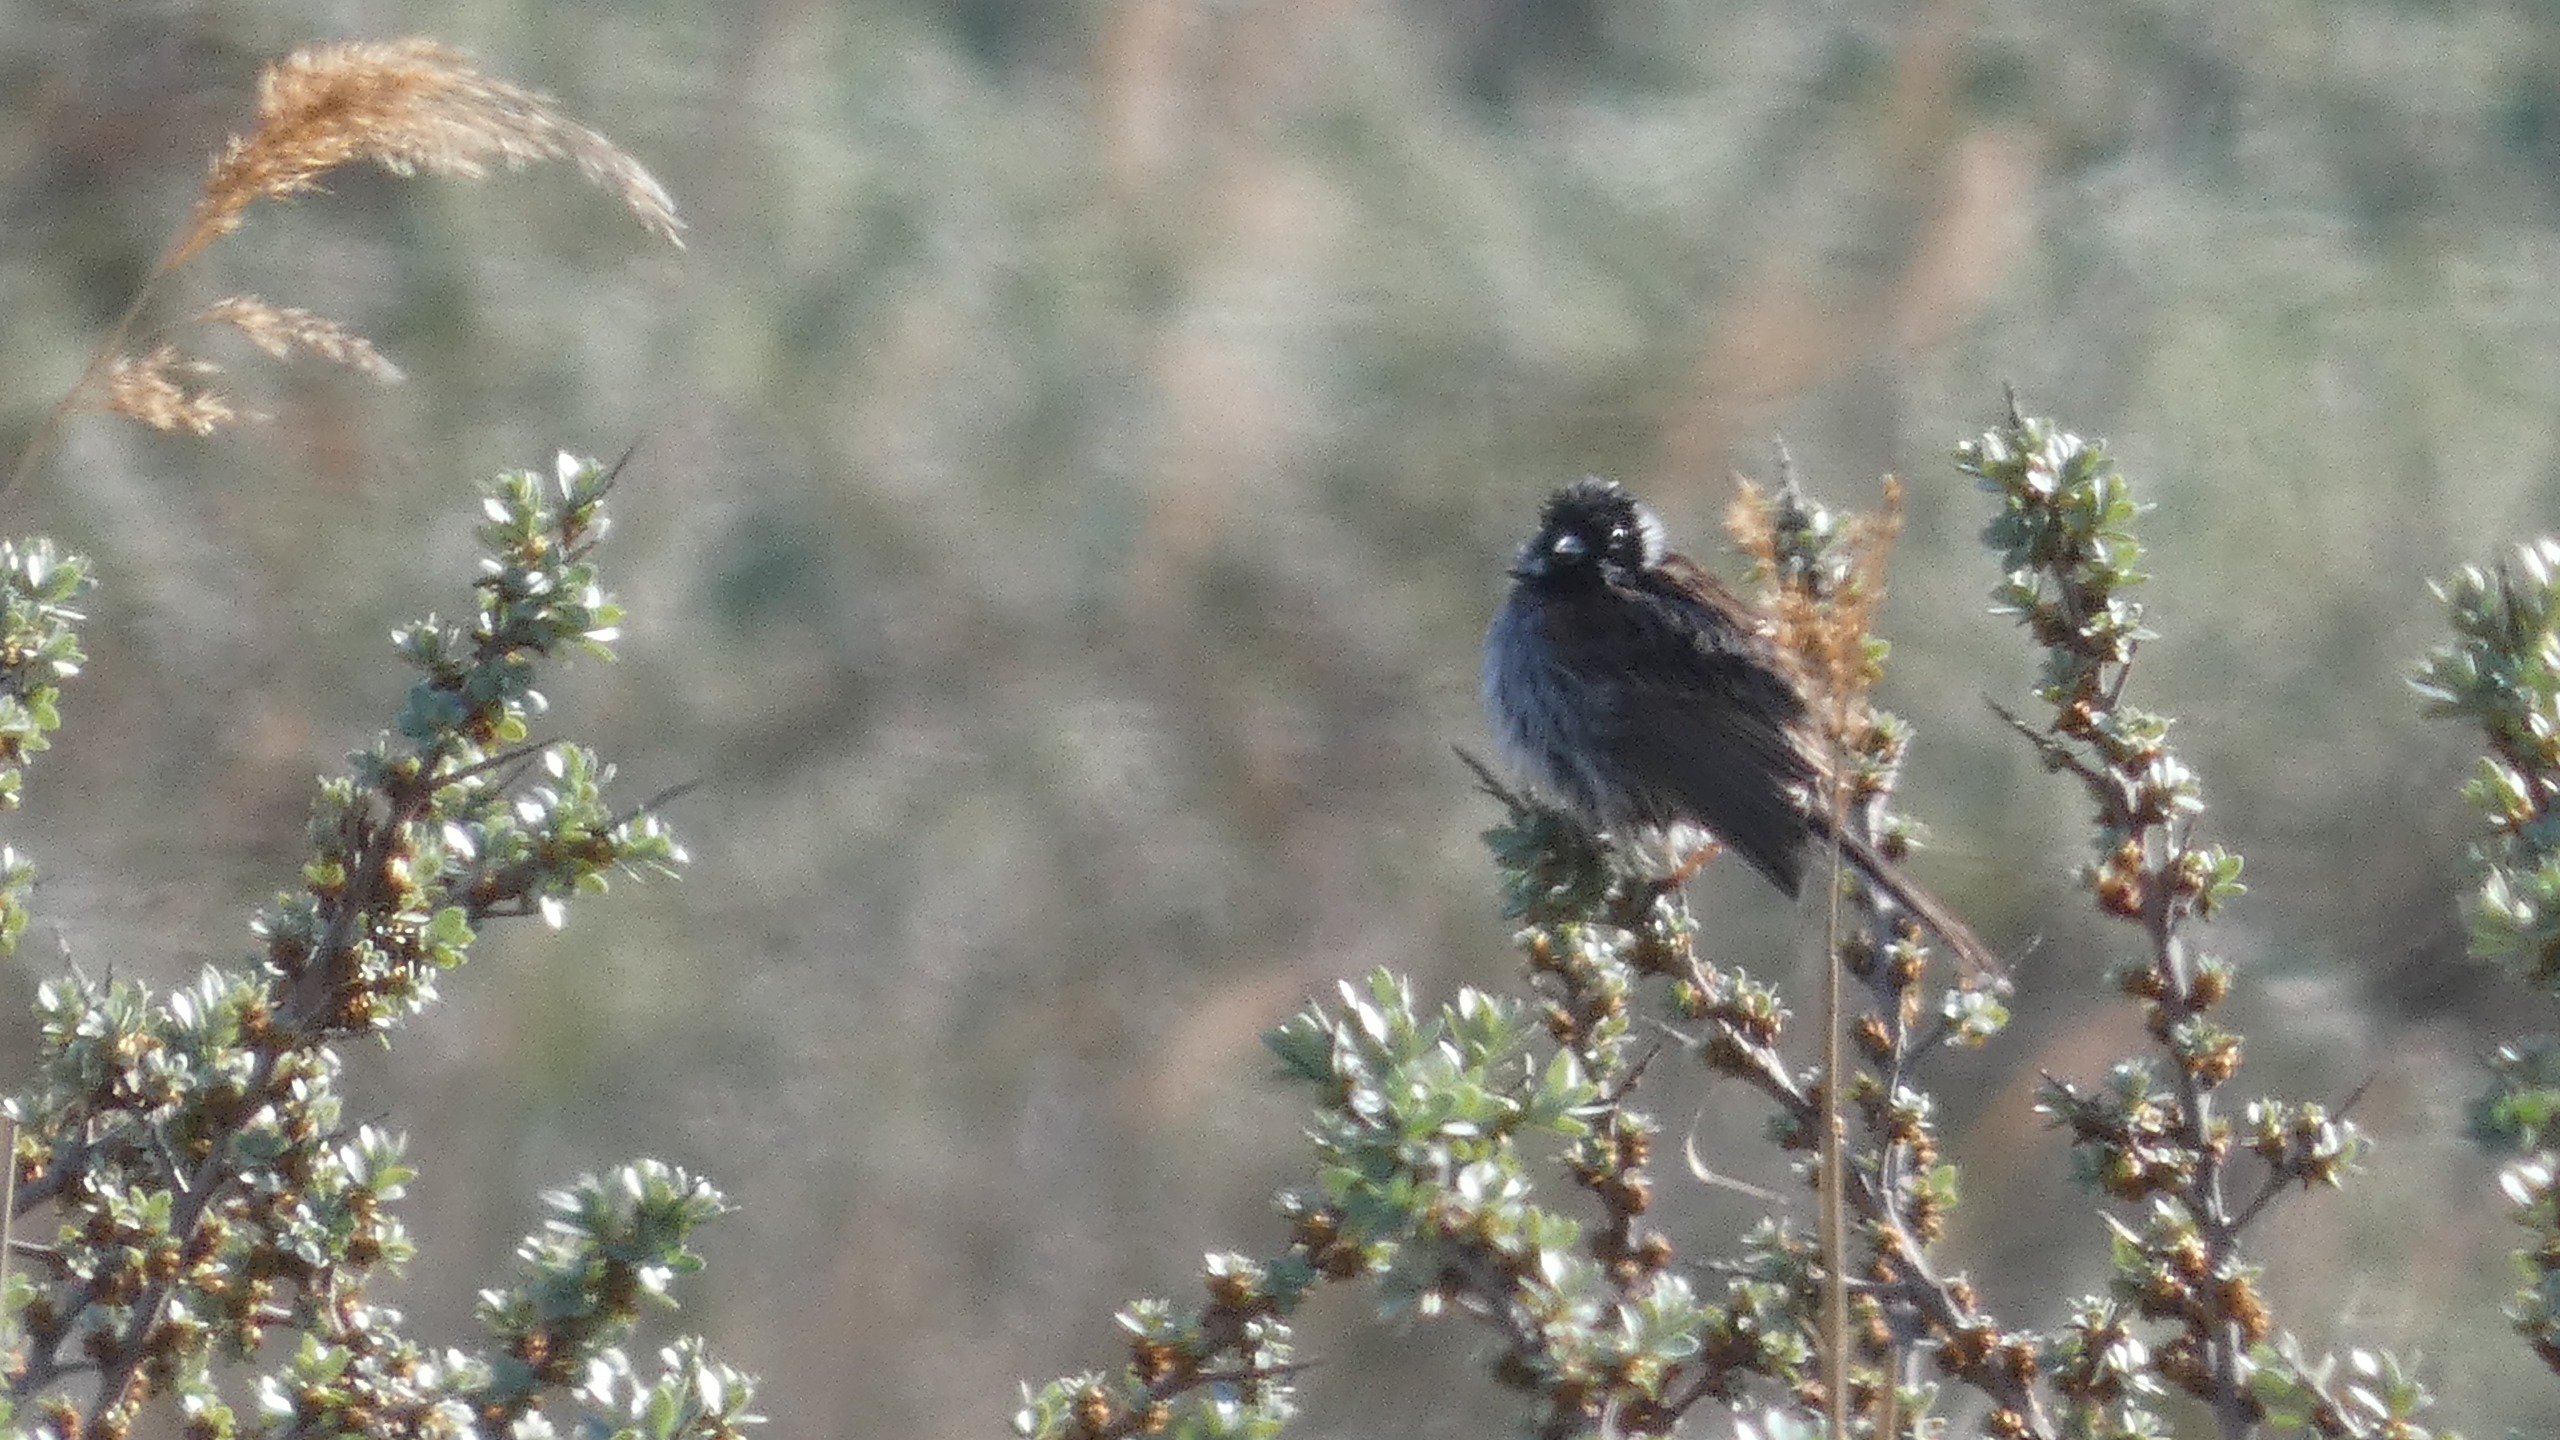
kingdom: Animalia
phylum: Chordata
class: Aves
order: Passeriformes
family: Emberizidae
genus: Emberiza
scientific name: Emberiza schoeniclus
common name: Rørspurv
